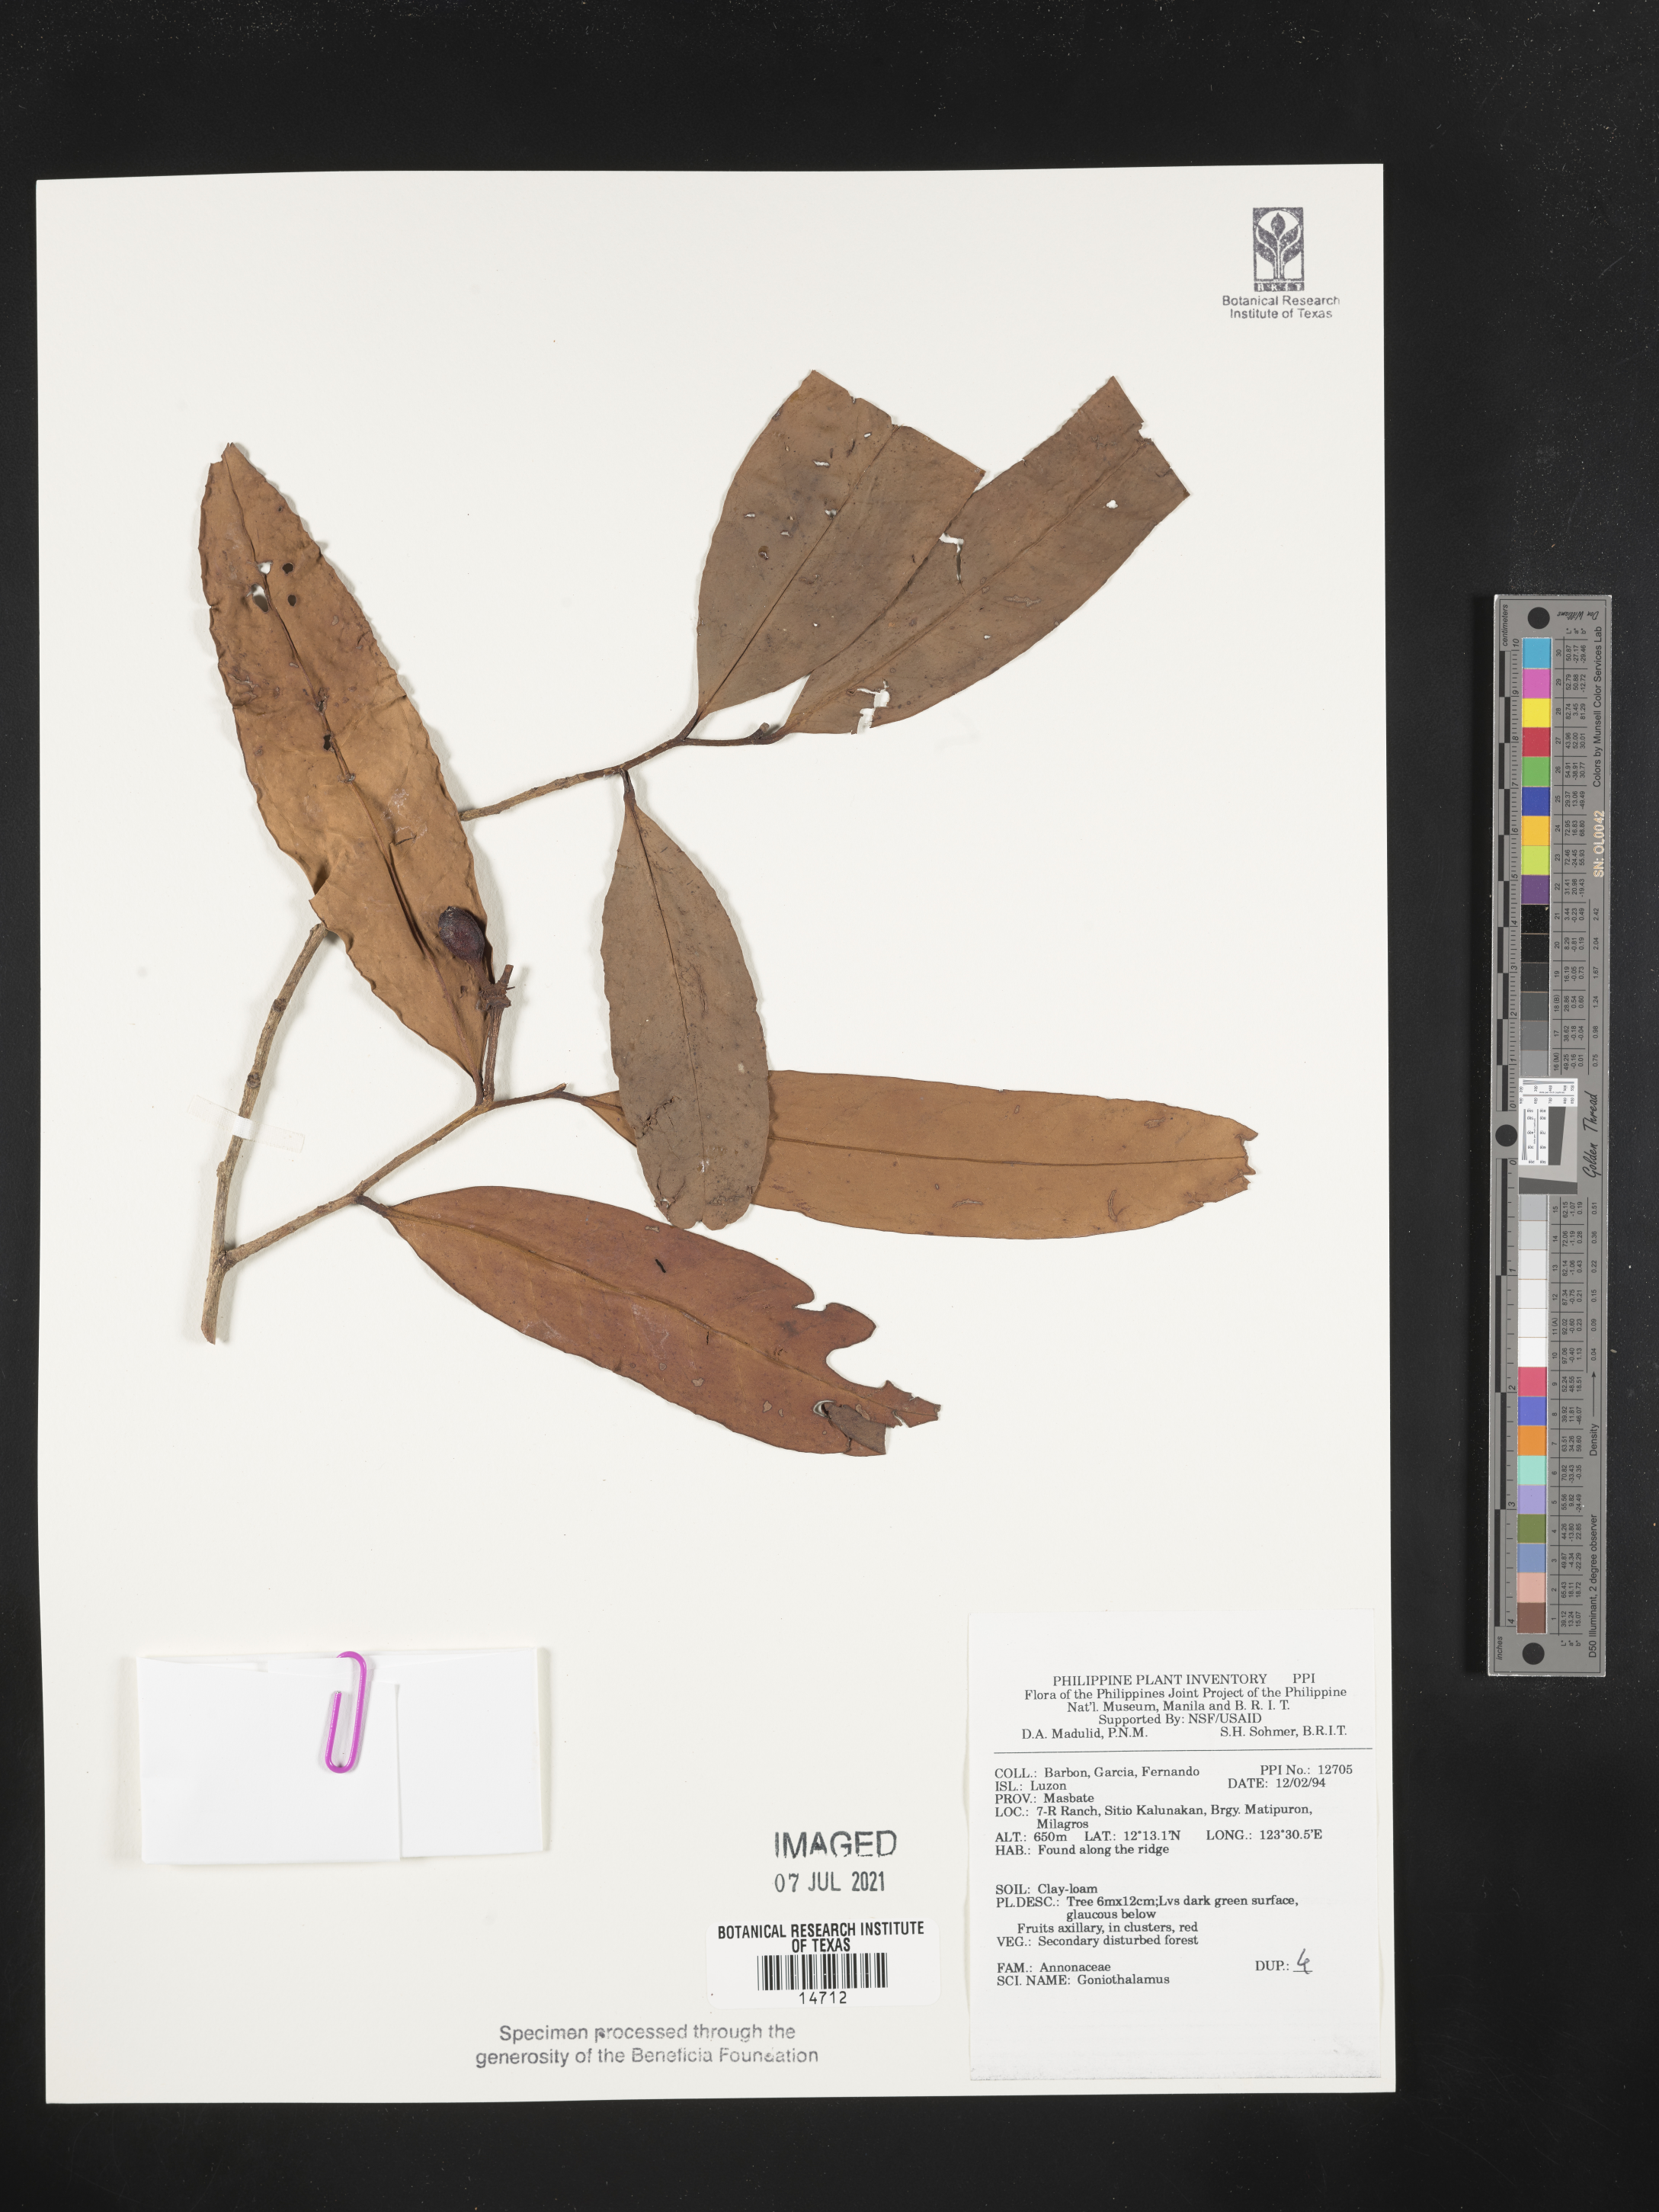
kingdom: Plantae
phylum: Tracheophyta
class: Magnoliopsida
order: Magnoliales
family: Annonaceae
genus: Goniothalamus
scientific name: Goniothalamus
